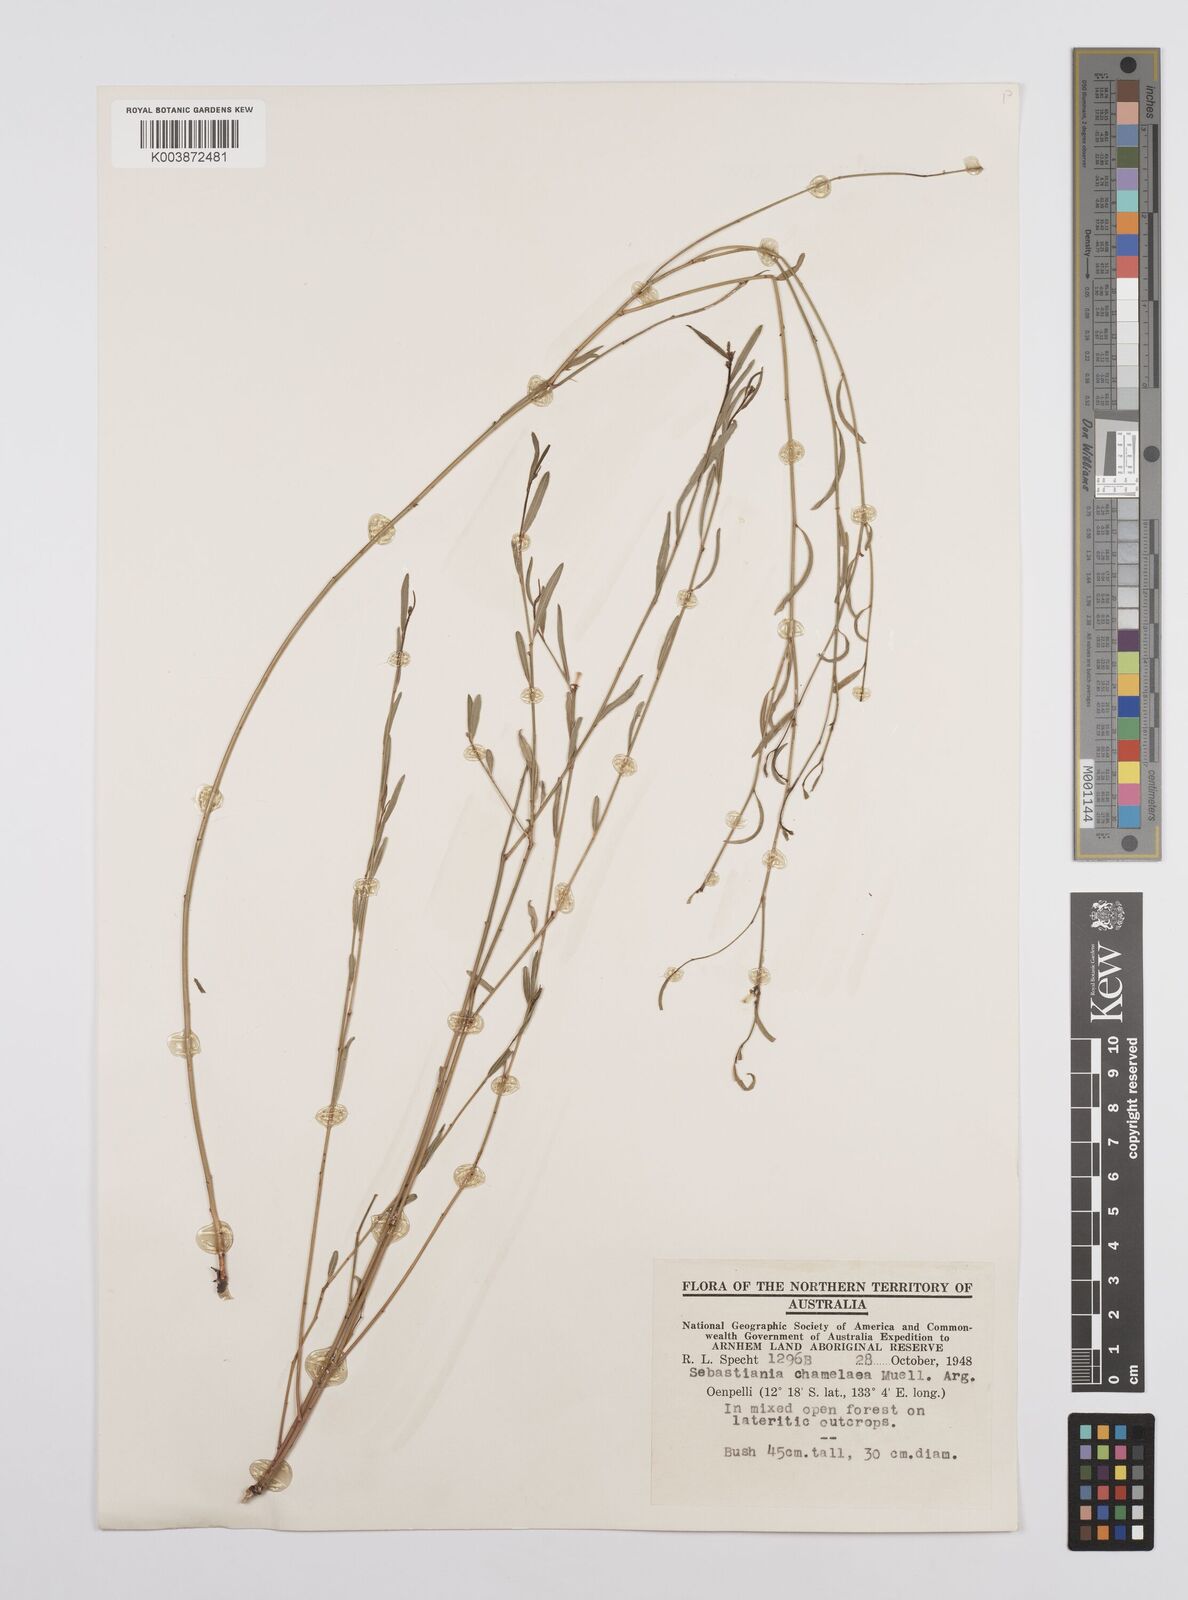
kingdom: Plantae
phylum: Tracheophyta
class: Magnoliopsida
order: Malpighiales
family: Euphorbiaceae
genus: Microstachys
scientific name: Microstachys chamaelea
